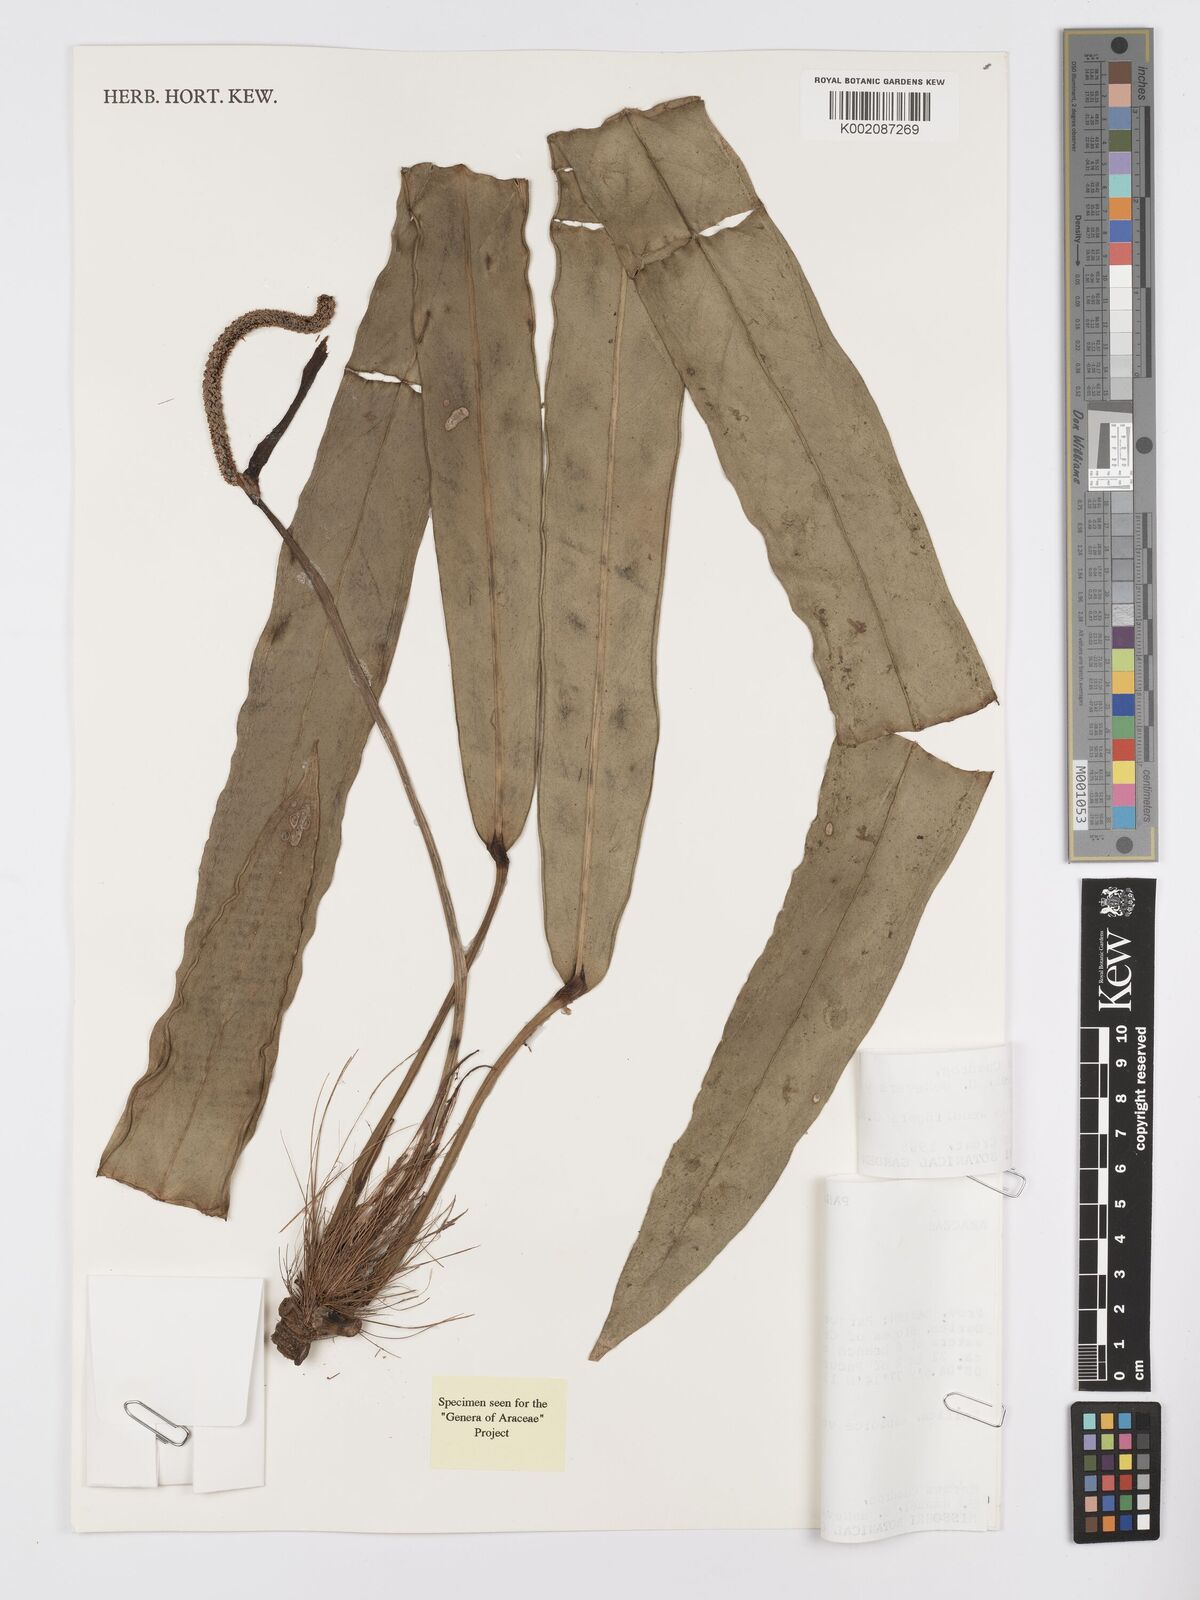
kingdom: Plantae
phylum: Tracheophyta
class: Liliopsida
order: Alismatales
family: Araceae
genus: Anthurium
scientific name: Anthurium wendlingeri
